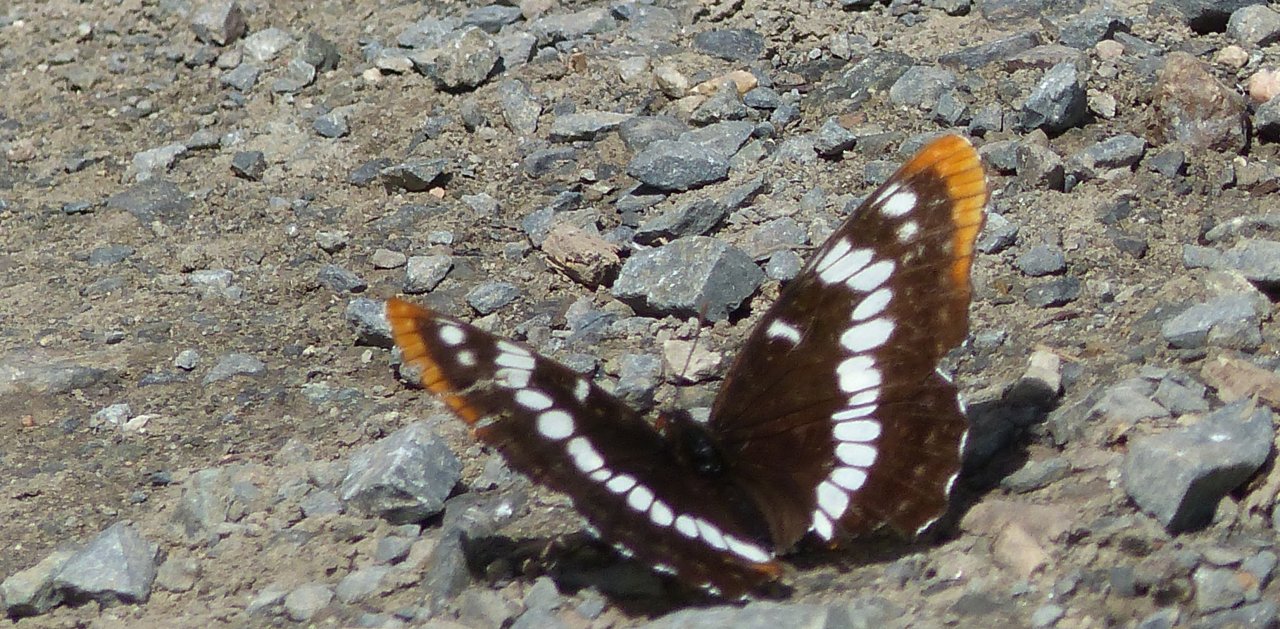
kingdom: Animalia
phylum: Arthropoda
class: Insecta
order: Lepidoptera
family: Nymphalidae
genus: Limenitis
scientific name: Limenitis lorquini
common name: Lorquin's Admiral
